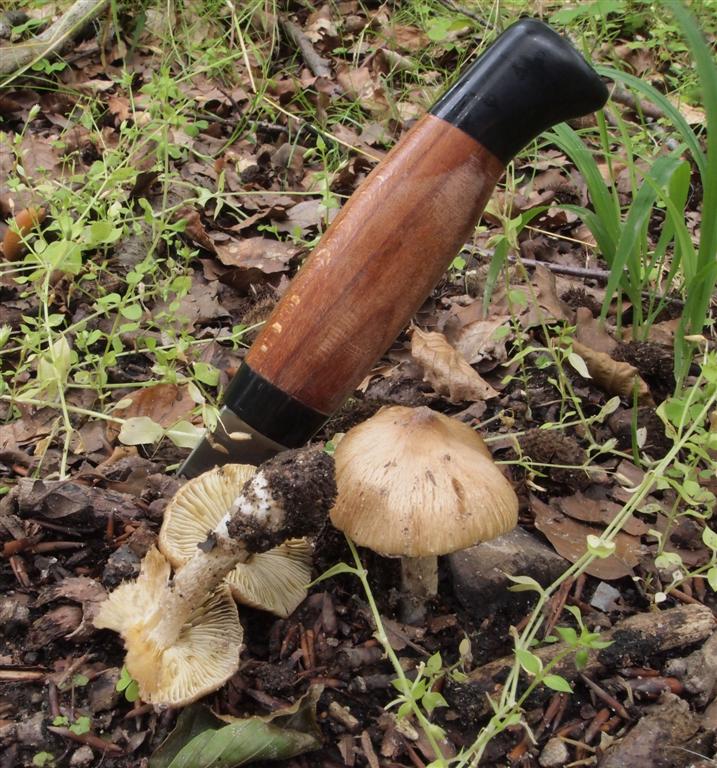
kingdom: Fungi
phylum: Basidiomycota
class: Agaricomycetes
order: Agaricales
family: Inocybaceae
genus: Pseudosperma
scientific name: Pseudosperma rimosum
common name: gulbladet trævlhat
